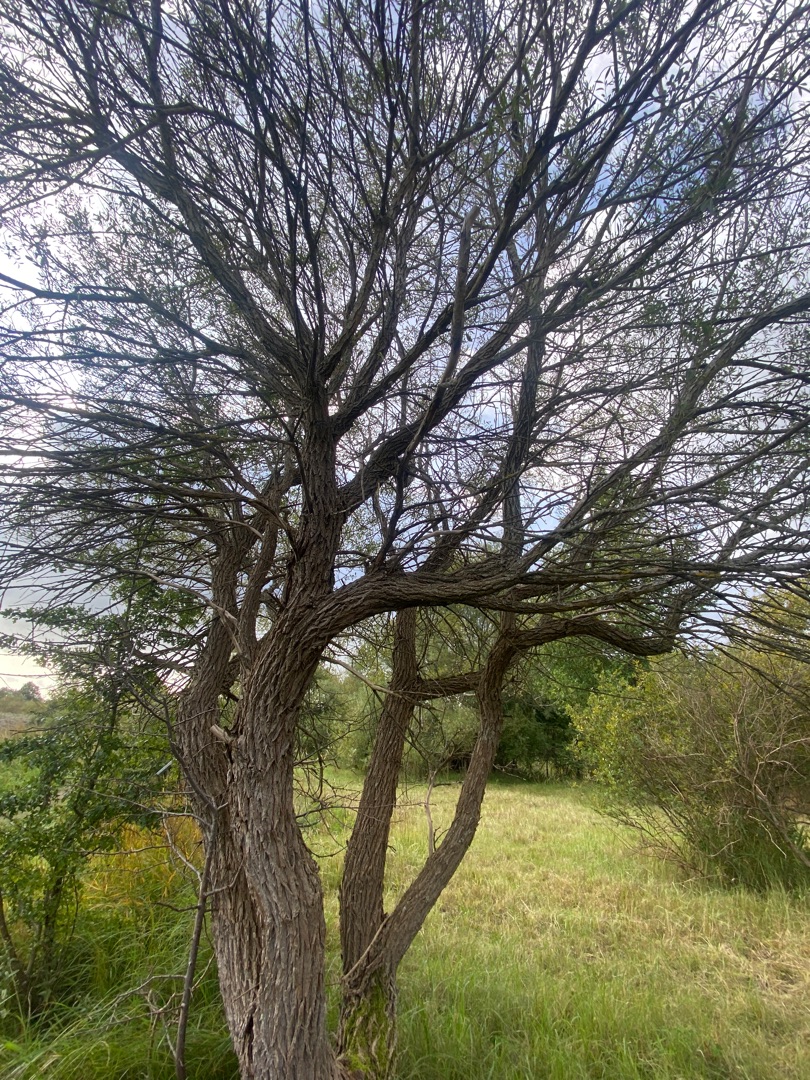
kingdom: Plantae
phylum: Tracheophyta
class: Magnoliopsida
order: Santalales
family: Viscaceae
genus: Viscum
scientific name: Viscum album
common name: Mistelten
